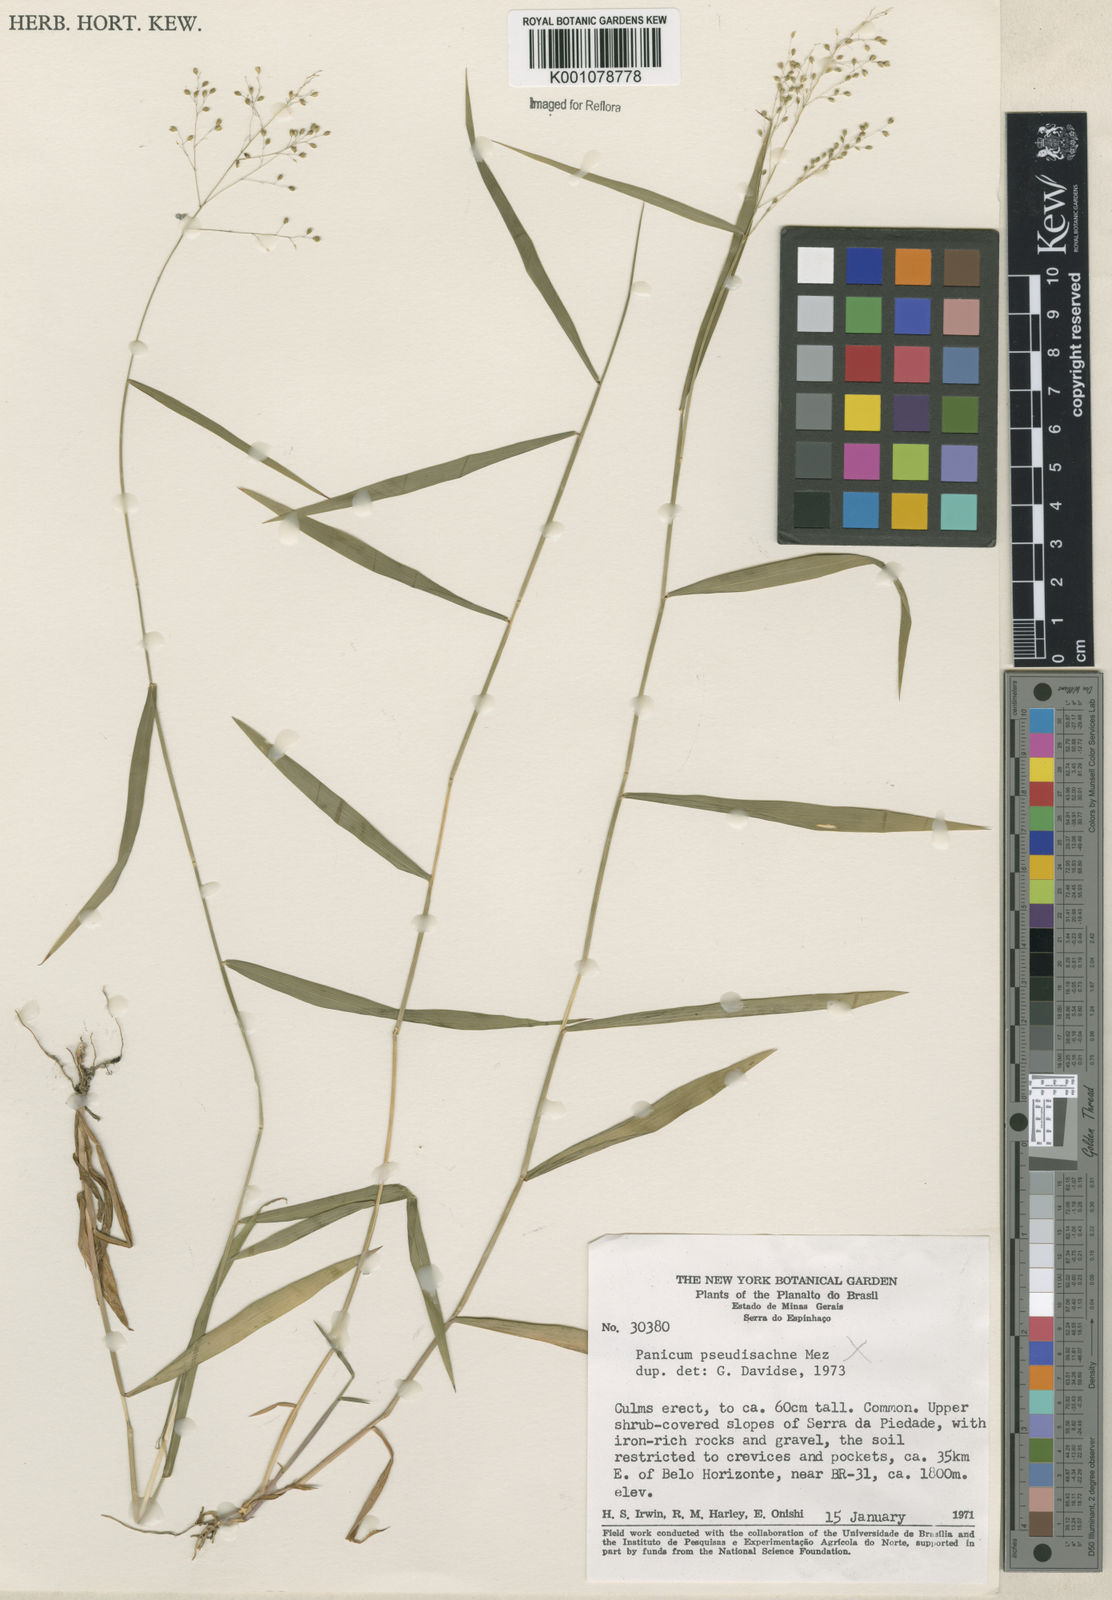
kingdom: Plantae
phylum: Tracheophyta
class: Liliopsida
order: Poales
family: Poaceae
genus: Panicum
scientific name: Panicum
